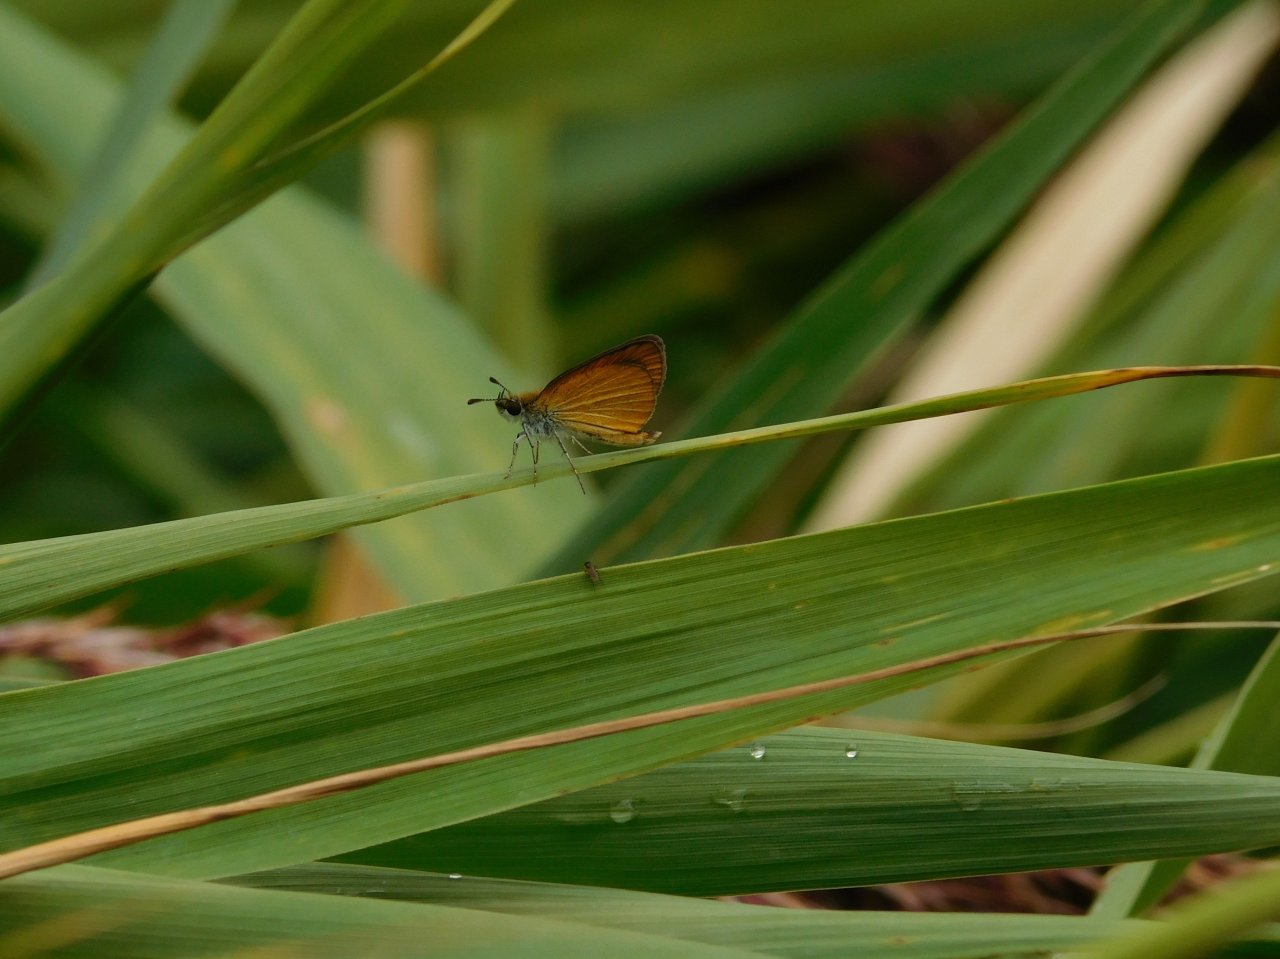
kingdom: Animalia
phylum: Arthropoda
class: Insecta
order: Lepidoptera
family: Hesperiidae
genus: Ancyloxypha
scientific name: Ancyloxypha numitor
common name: Least Skipper
